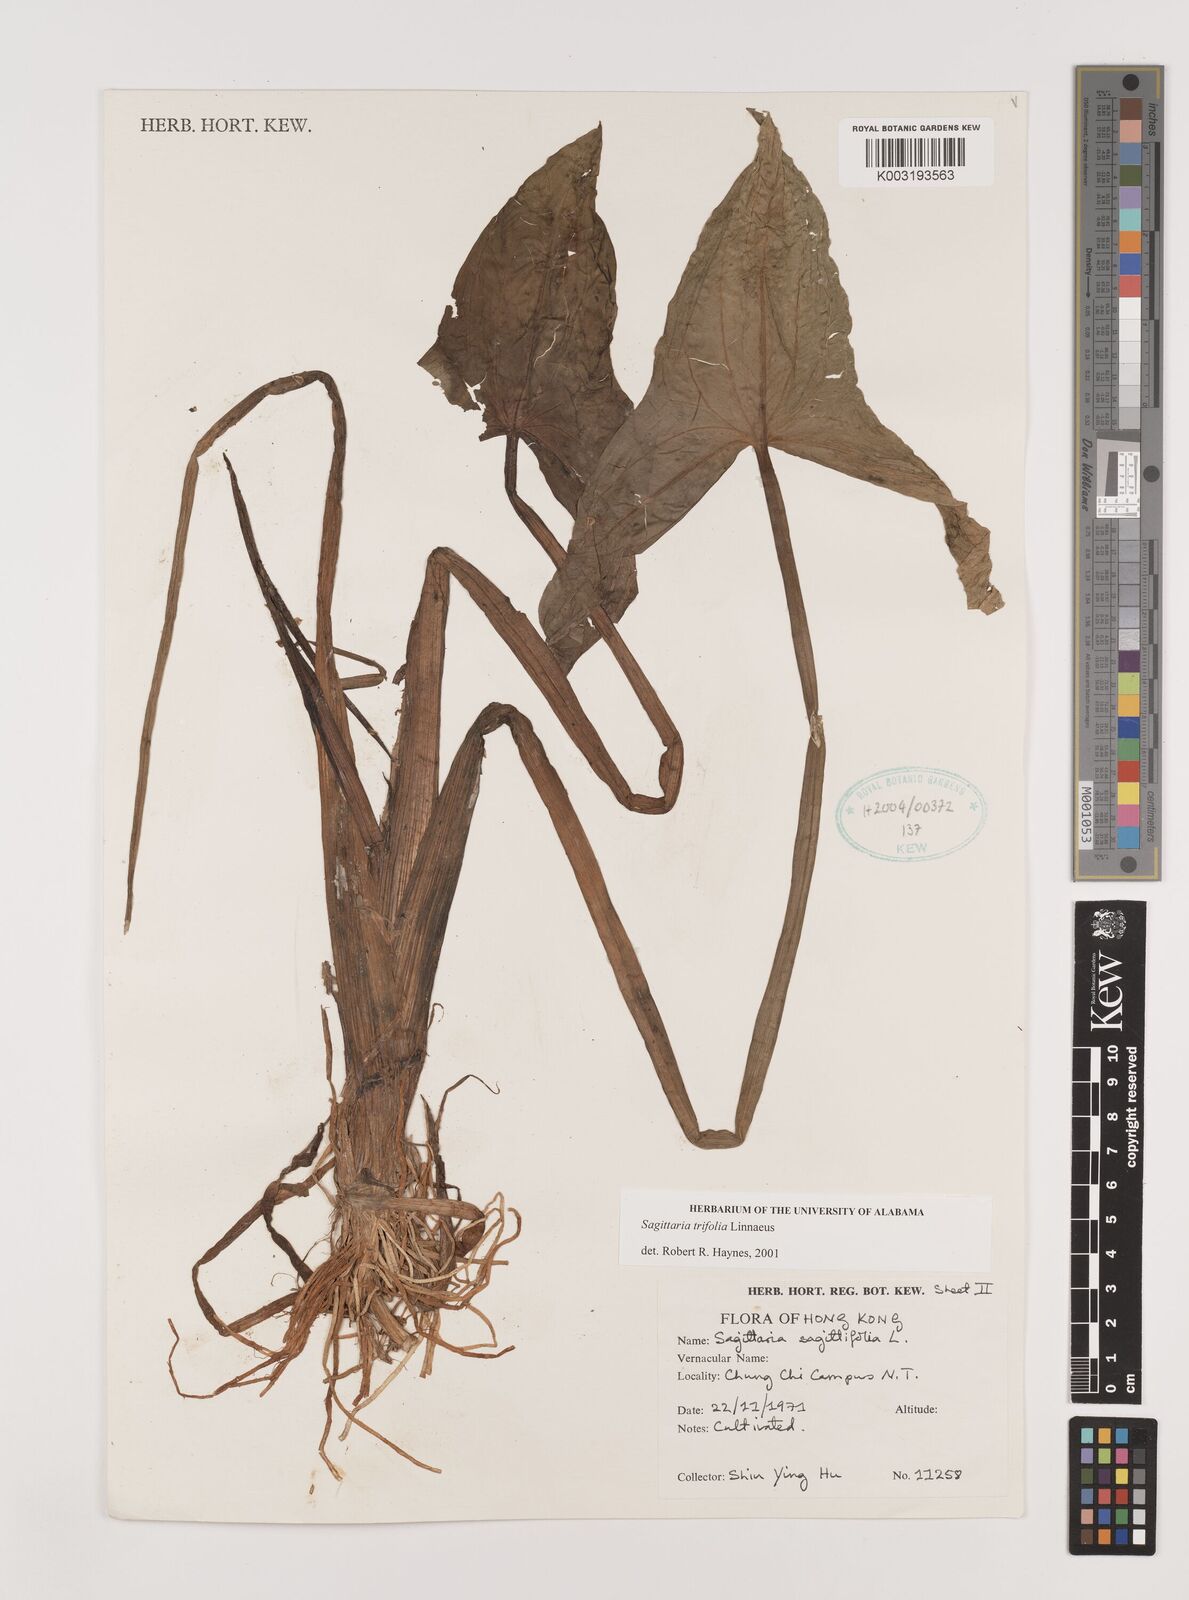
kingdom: Plantae
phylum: Tracheophyta
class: Liliopsida
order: Alismatales
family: Alismataceae
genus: Sagittaria
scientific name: Sagittaria trifolia
